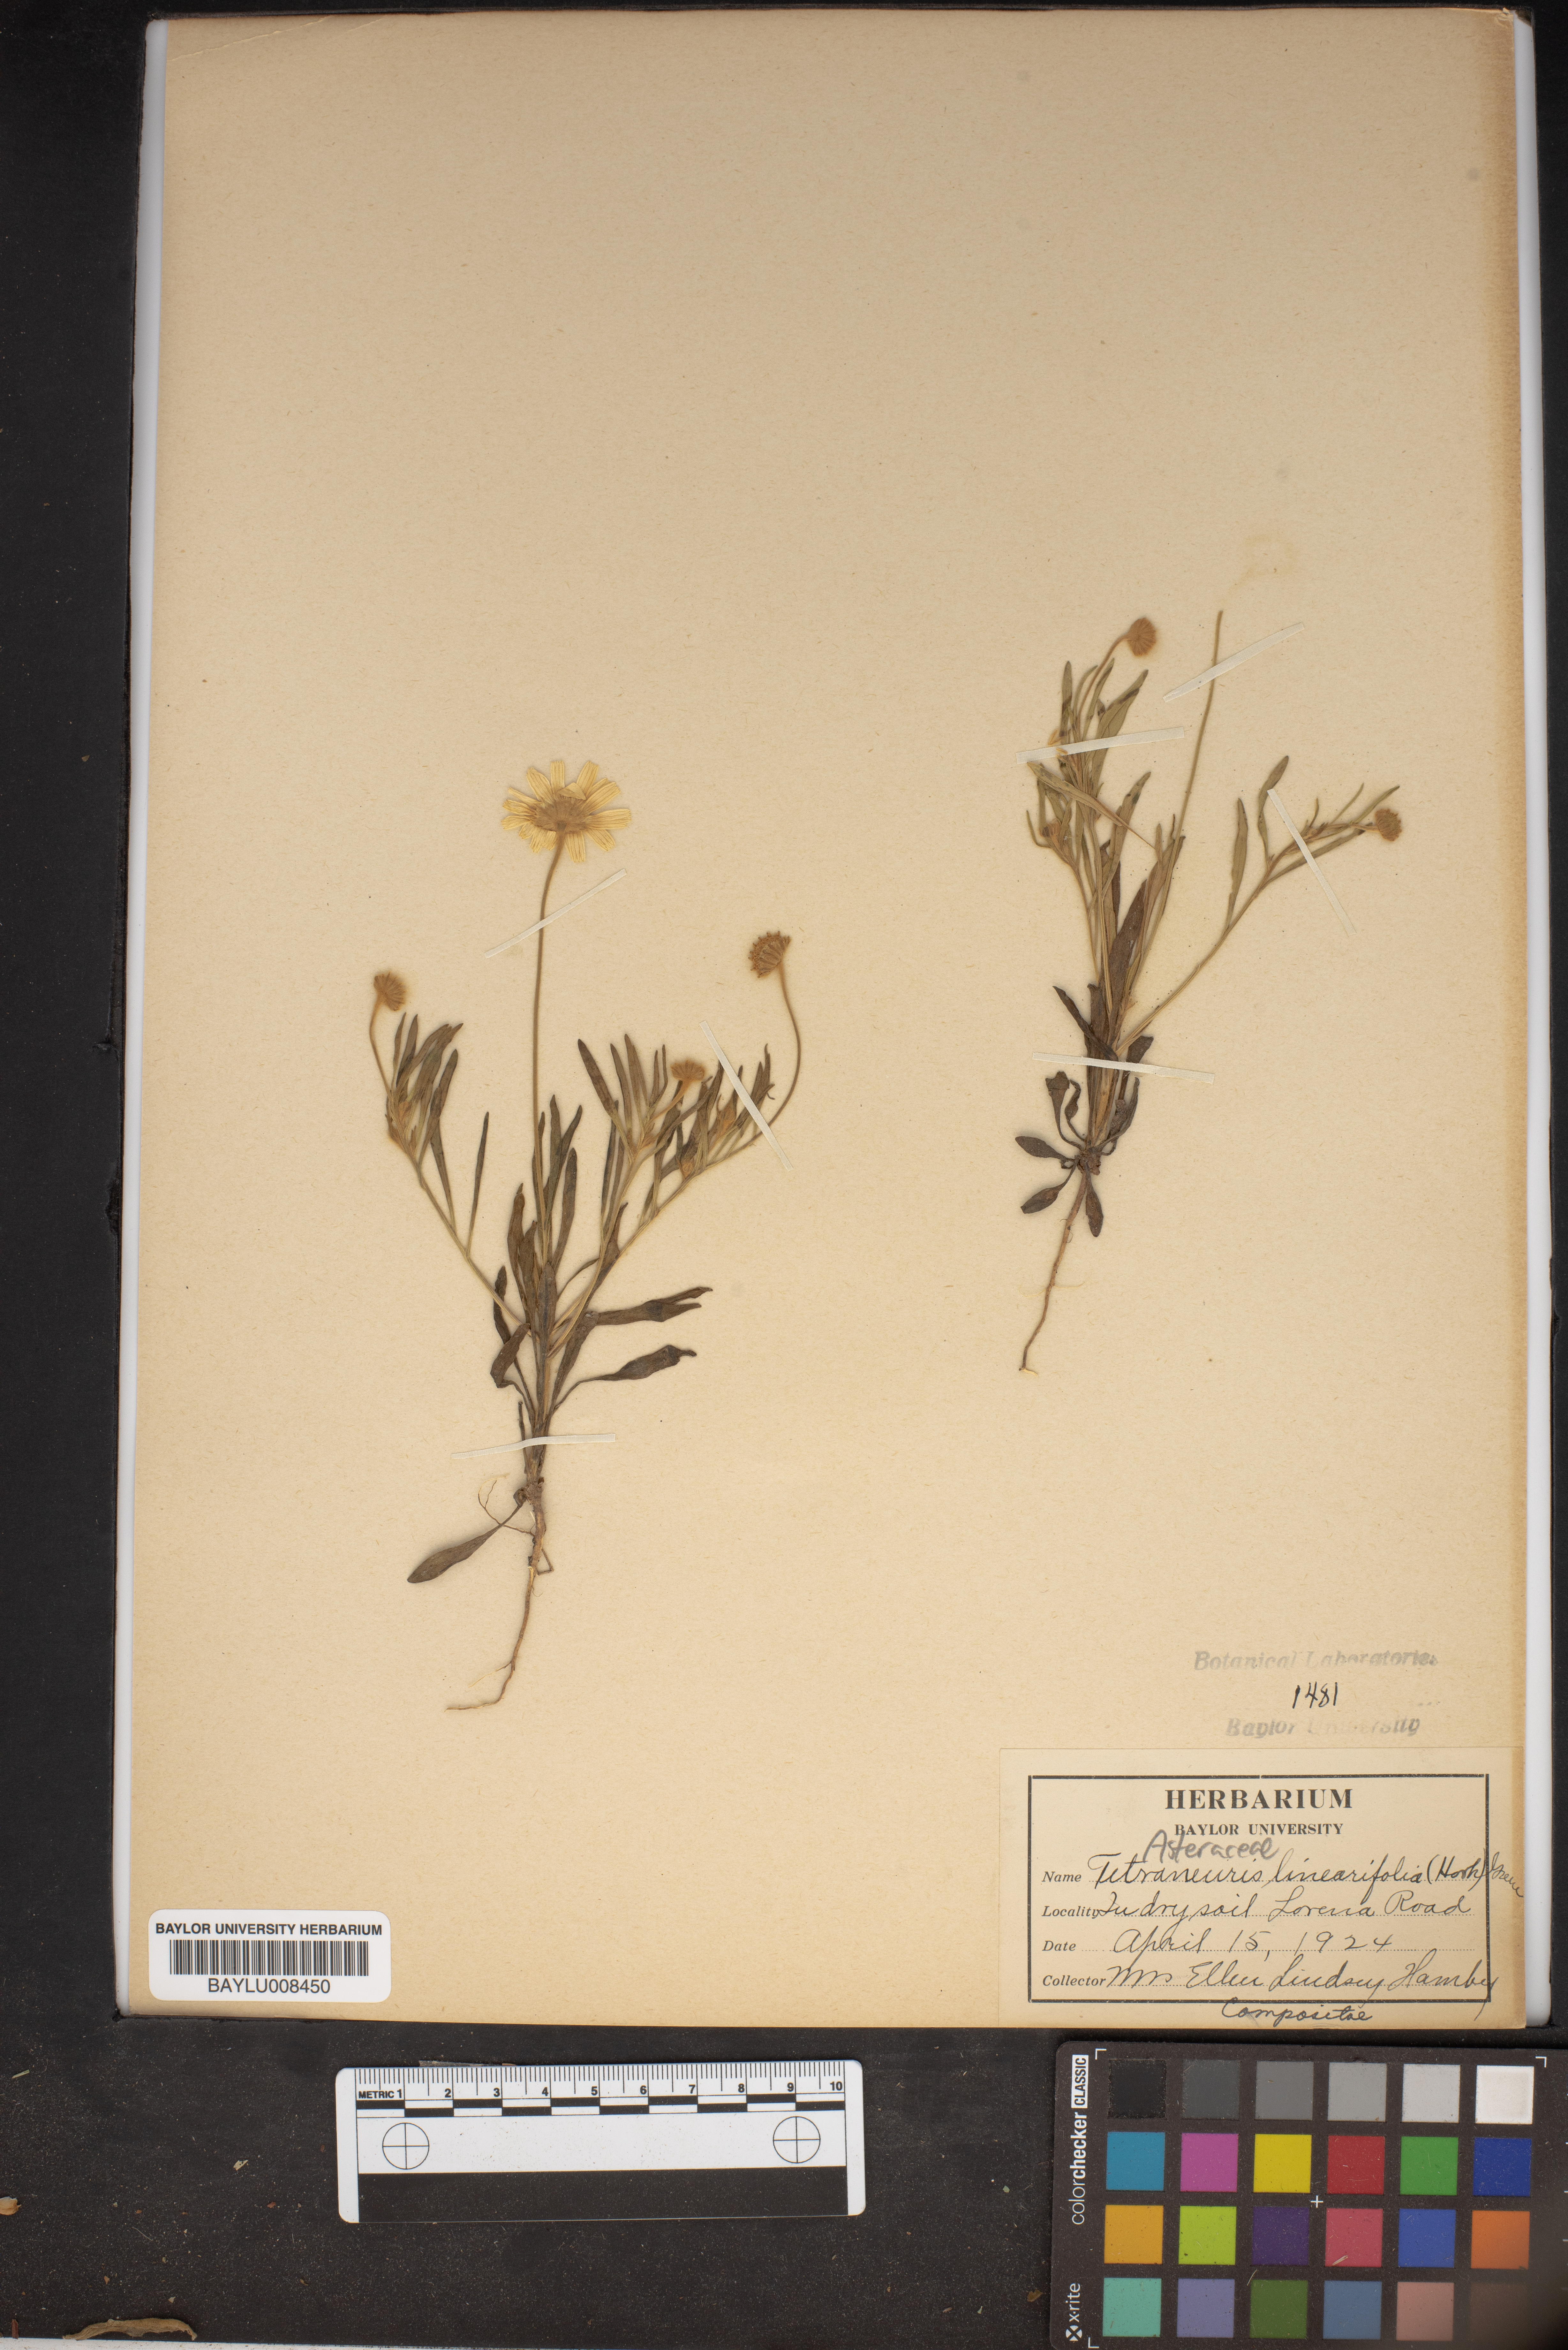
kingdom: Plantae
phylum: Tracheophyta
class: Magnoliopsida
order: Asterales
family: Asteraceae
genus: Tetraneuris
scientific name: Tetraneuris linearifolia
